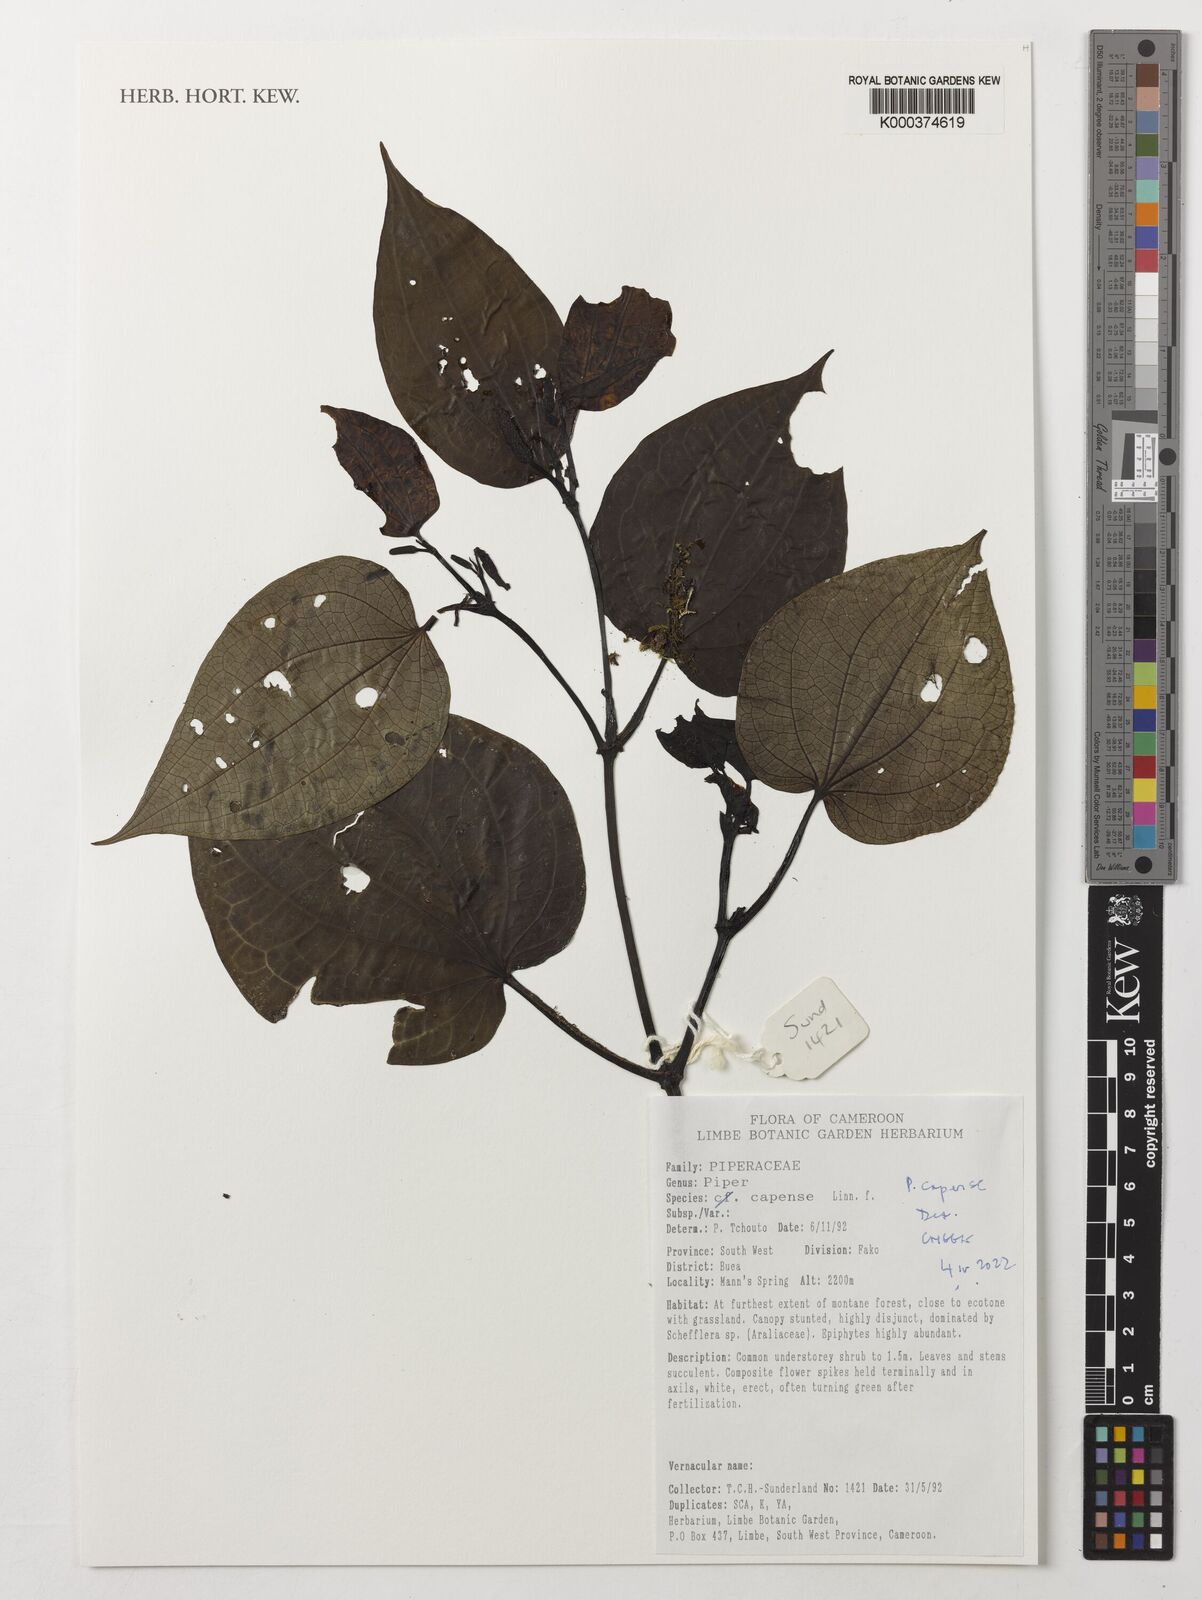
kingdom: Plantae
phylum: Tracheophyta
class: Magnoliopsida
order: Piperales
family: Piperaceae
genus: Piper
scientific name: Piper capense
